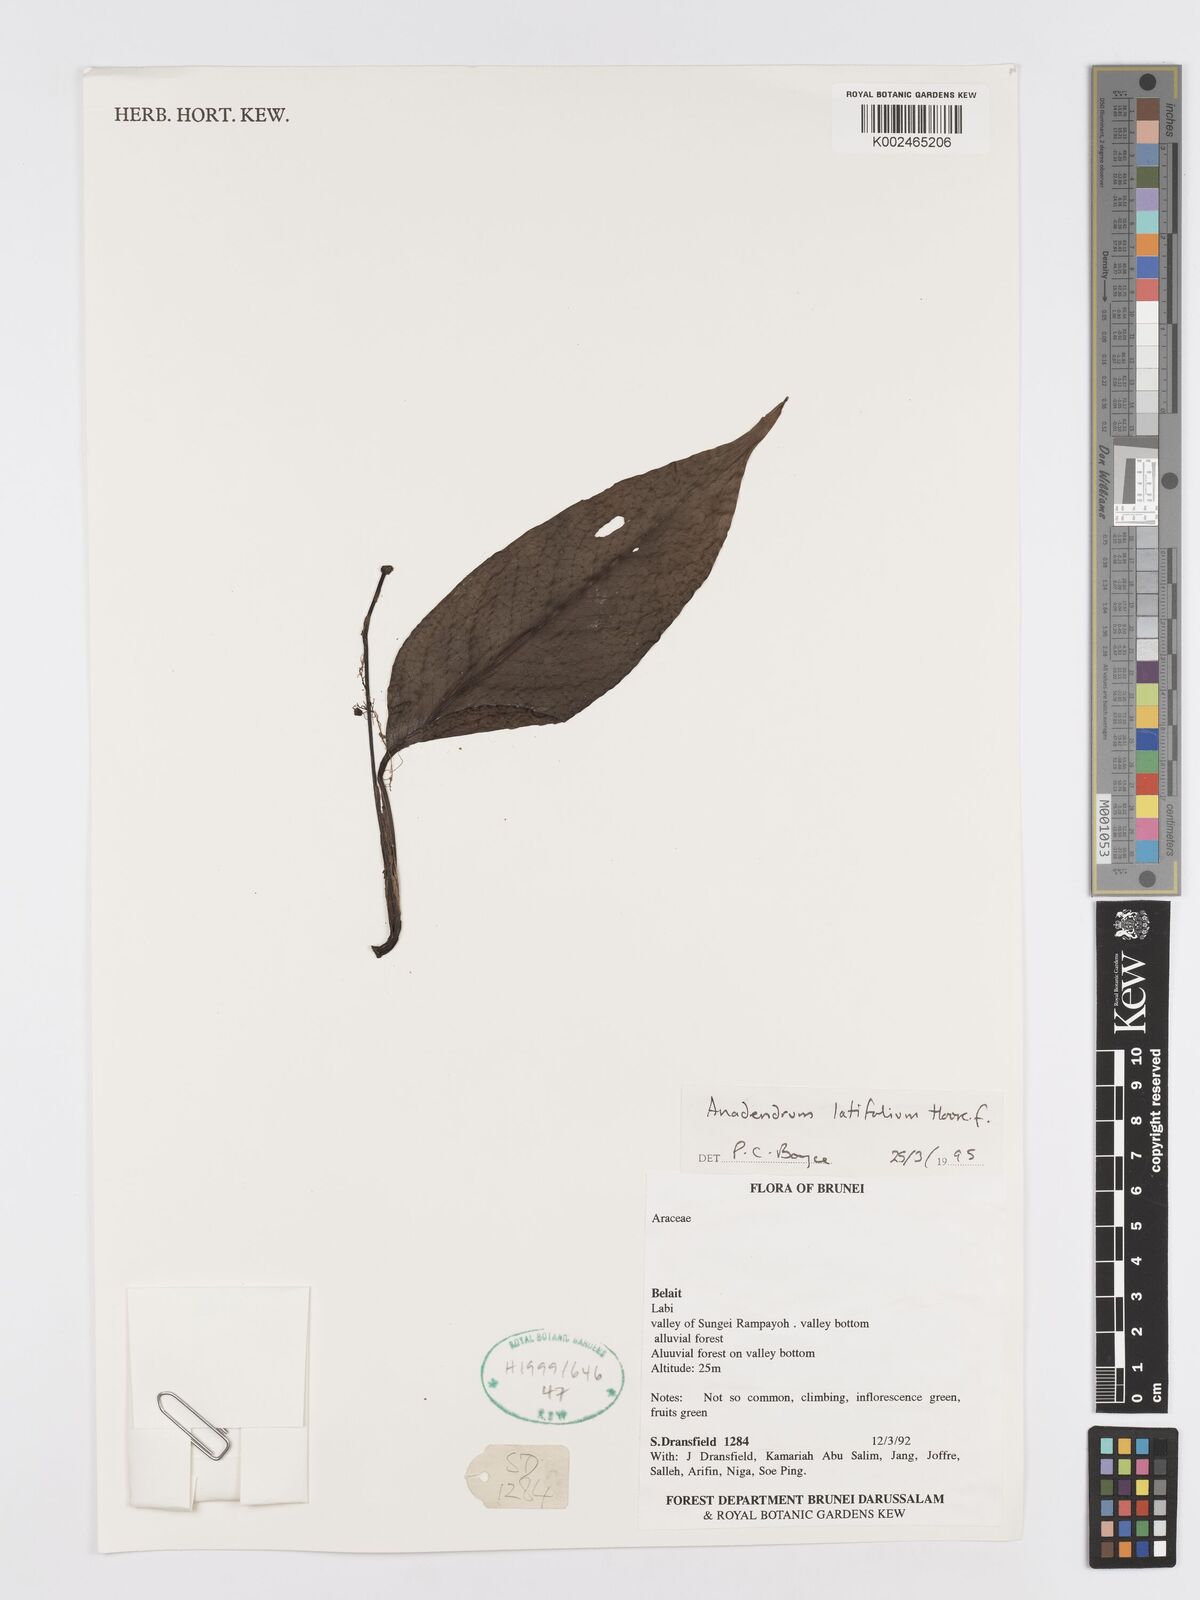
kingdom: Plantae
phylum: Tracheophyta
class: Liliopsida
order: Alismatales
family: Araceae
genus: Anadendrum
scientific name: Anadendrum latifolium
